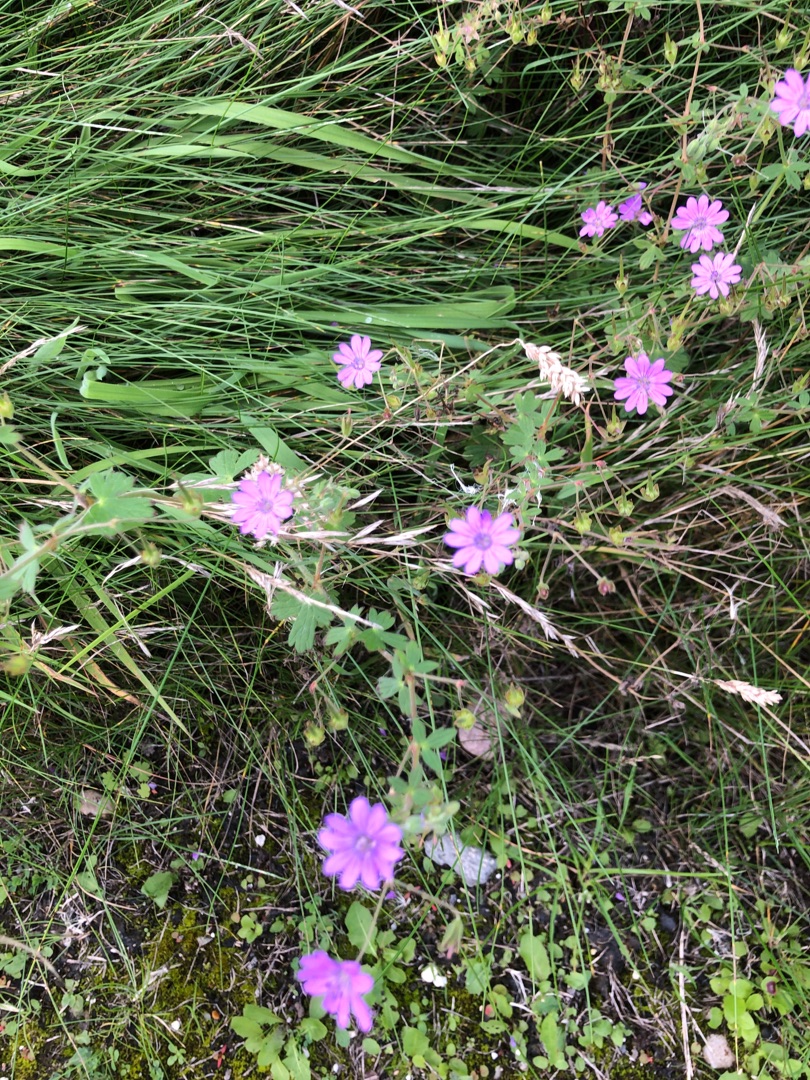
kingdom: Plantae
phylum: Tracheophyta
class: Magnoliopsida
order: Geraniales
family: Geraniaceae
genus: Geranium
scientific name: Geranium pyrenaicum
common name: Pyrenæisk storkenæb
